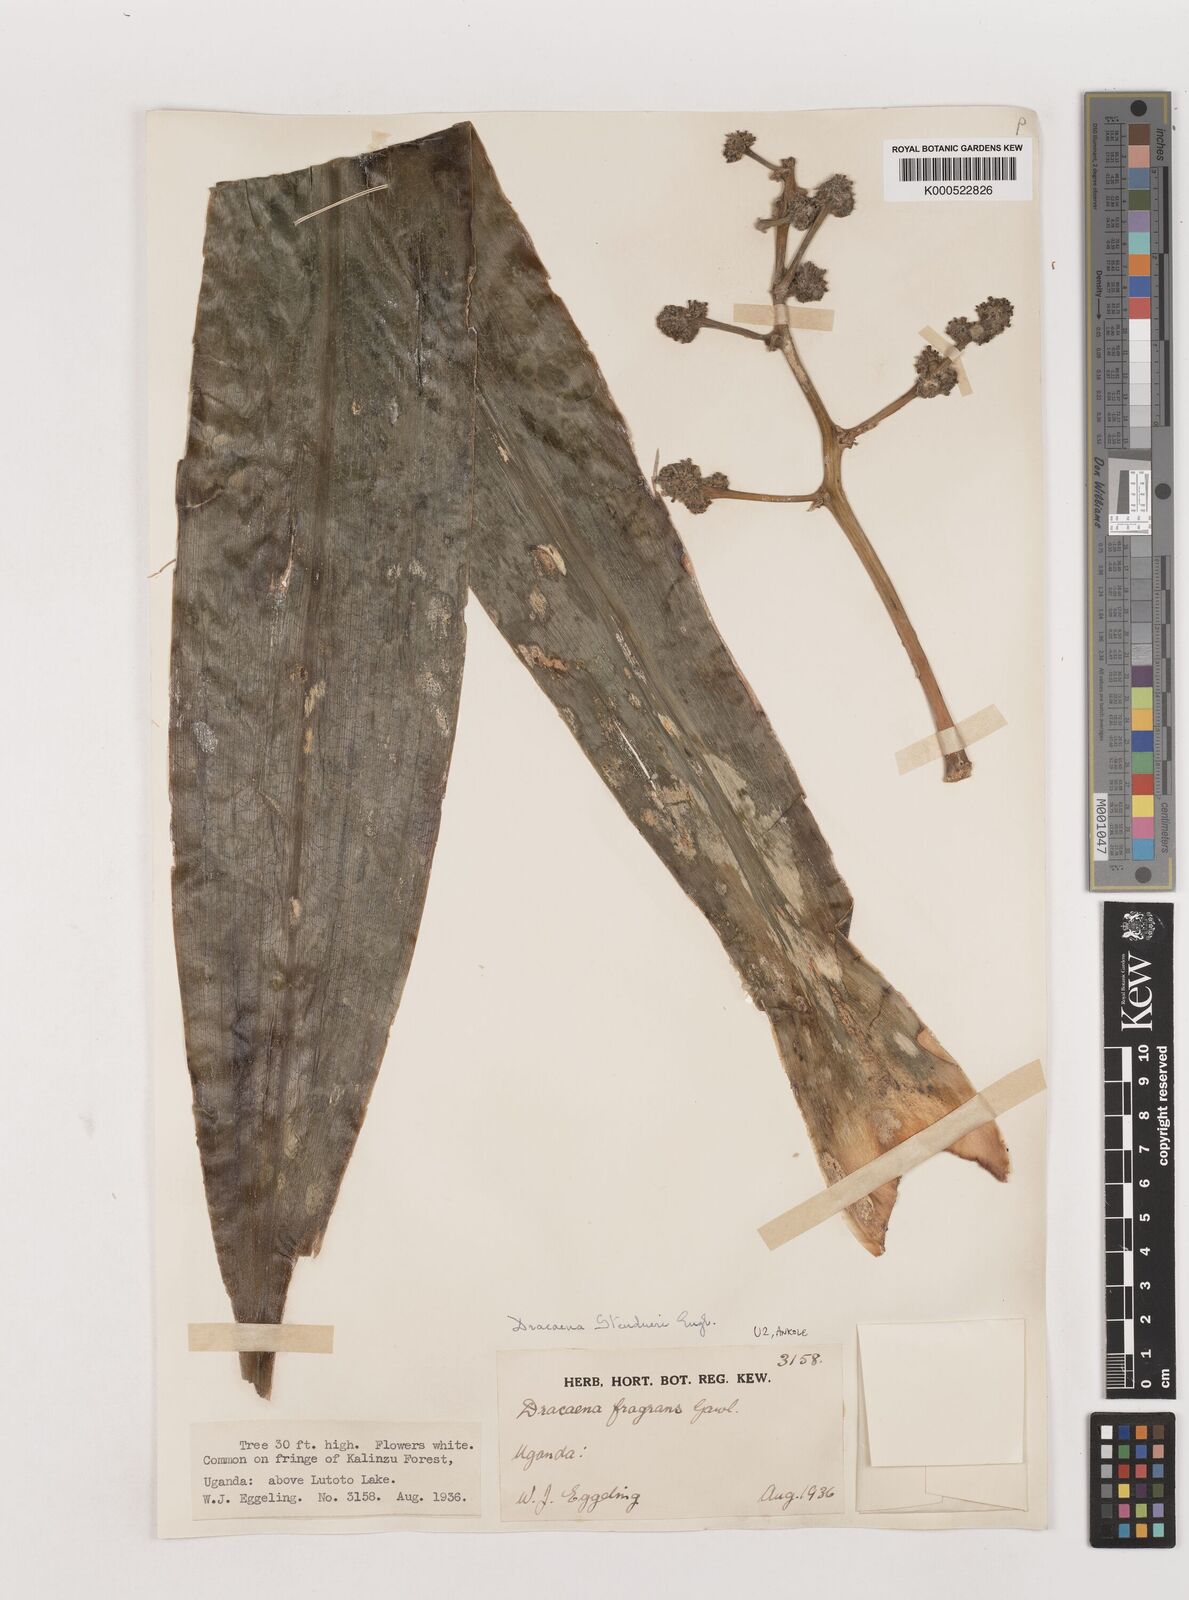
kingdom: Plantae
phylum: Tracheophyta
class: Liliopsida
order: Asparagales
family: Asparagaceae
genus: Dracaena
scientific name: Dracaena steudneri
